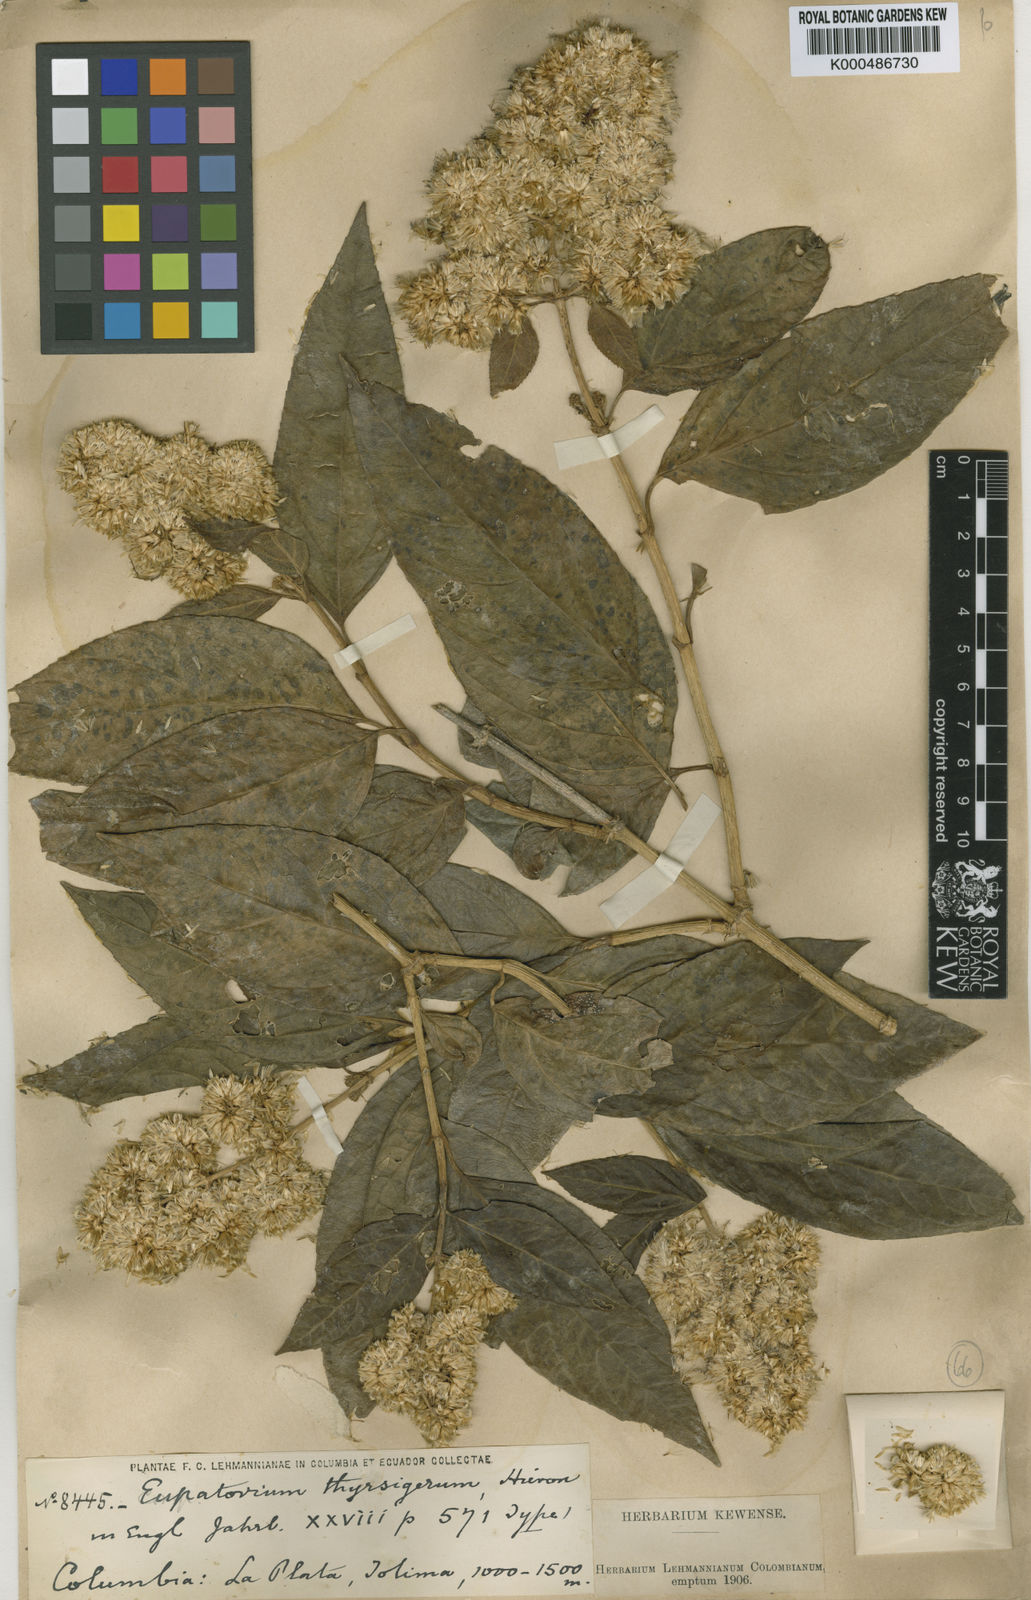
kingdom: Plantae
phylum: Tracheophyta
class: Magnoliopsida
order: Asterales
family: Asteraceae
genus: Critonia
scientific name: Critonia morifolia
